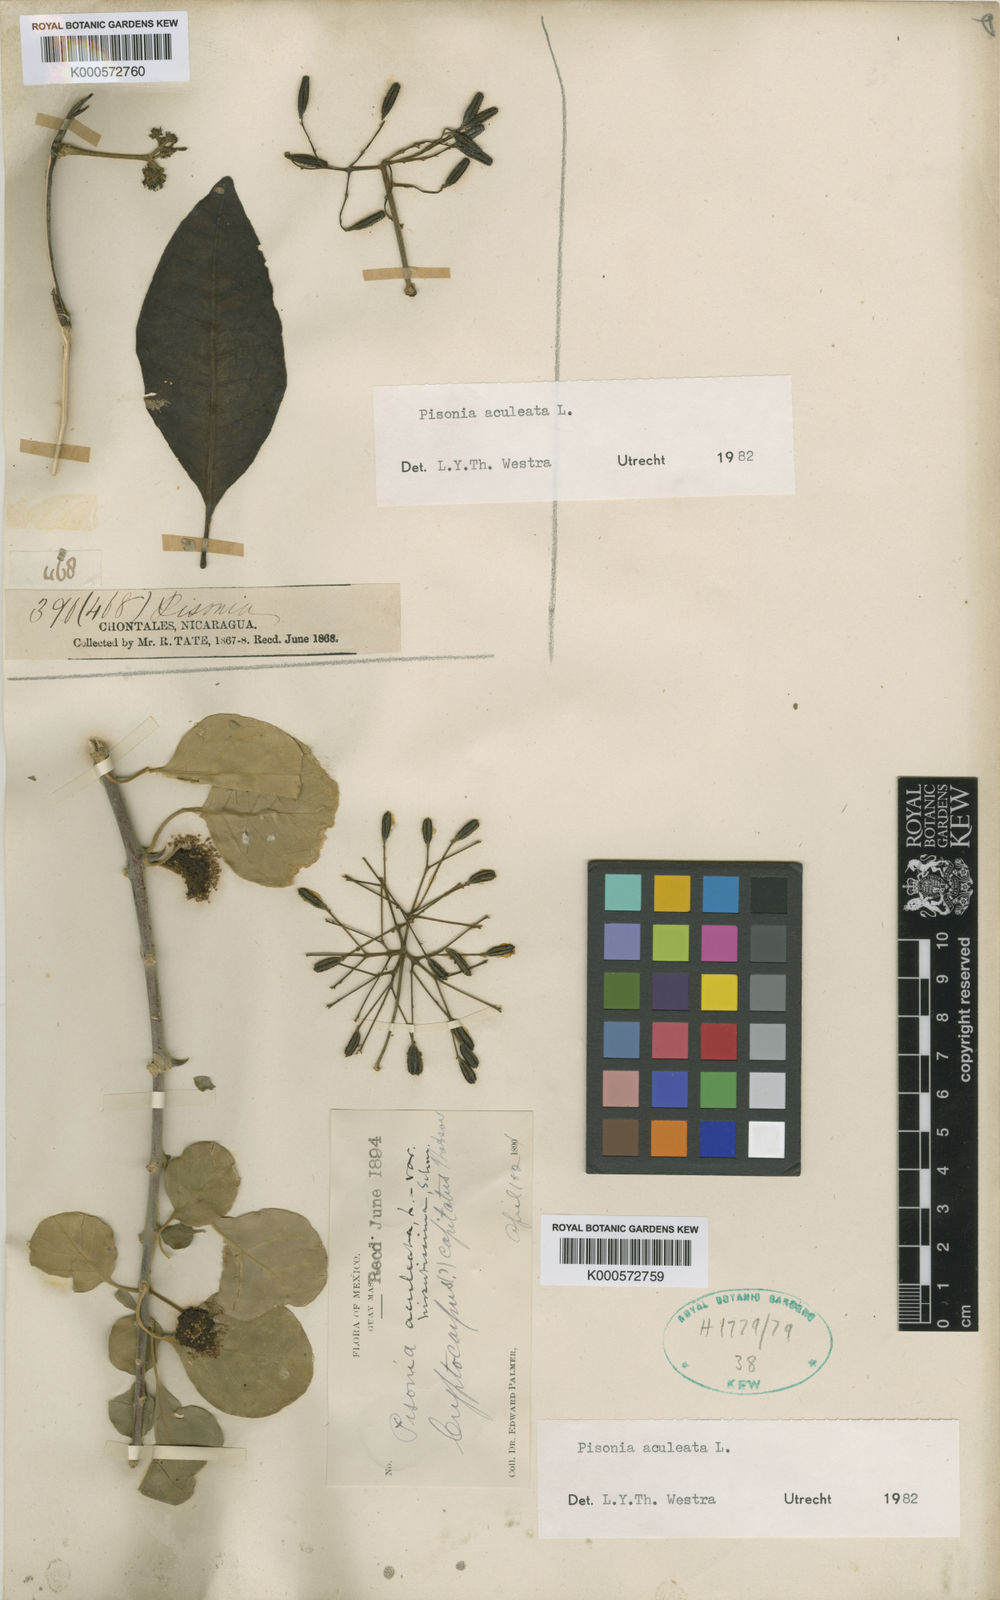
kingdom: Plantae
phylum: Tracheophyta
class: Magnoliopsida
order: Caryophyllales
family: Nyctaginaceae
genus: Pisonia
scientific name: Pisonia capitata
